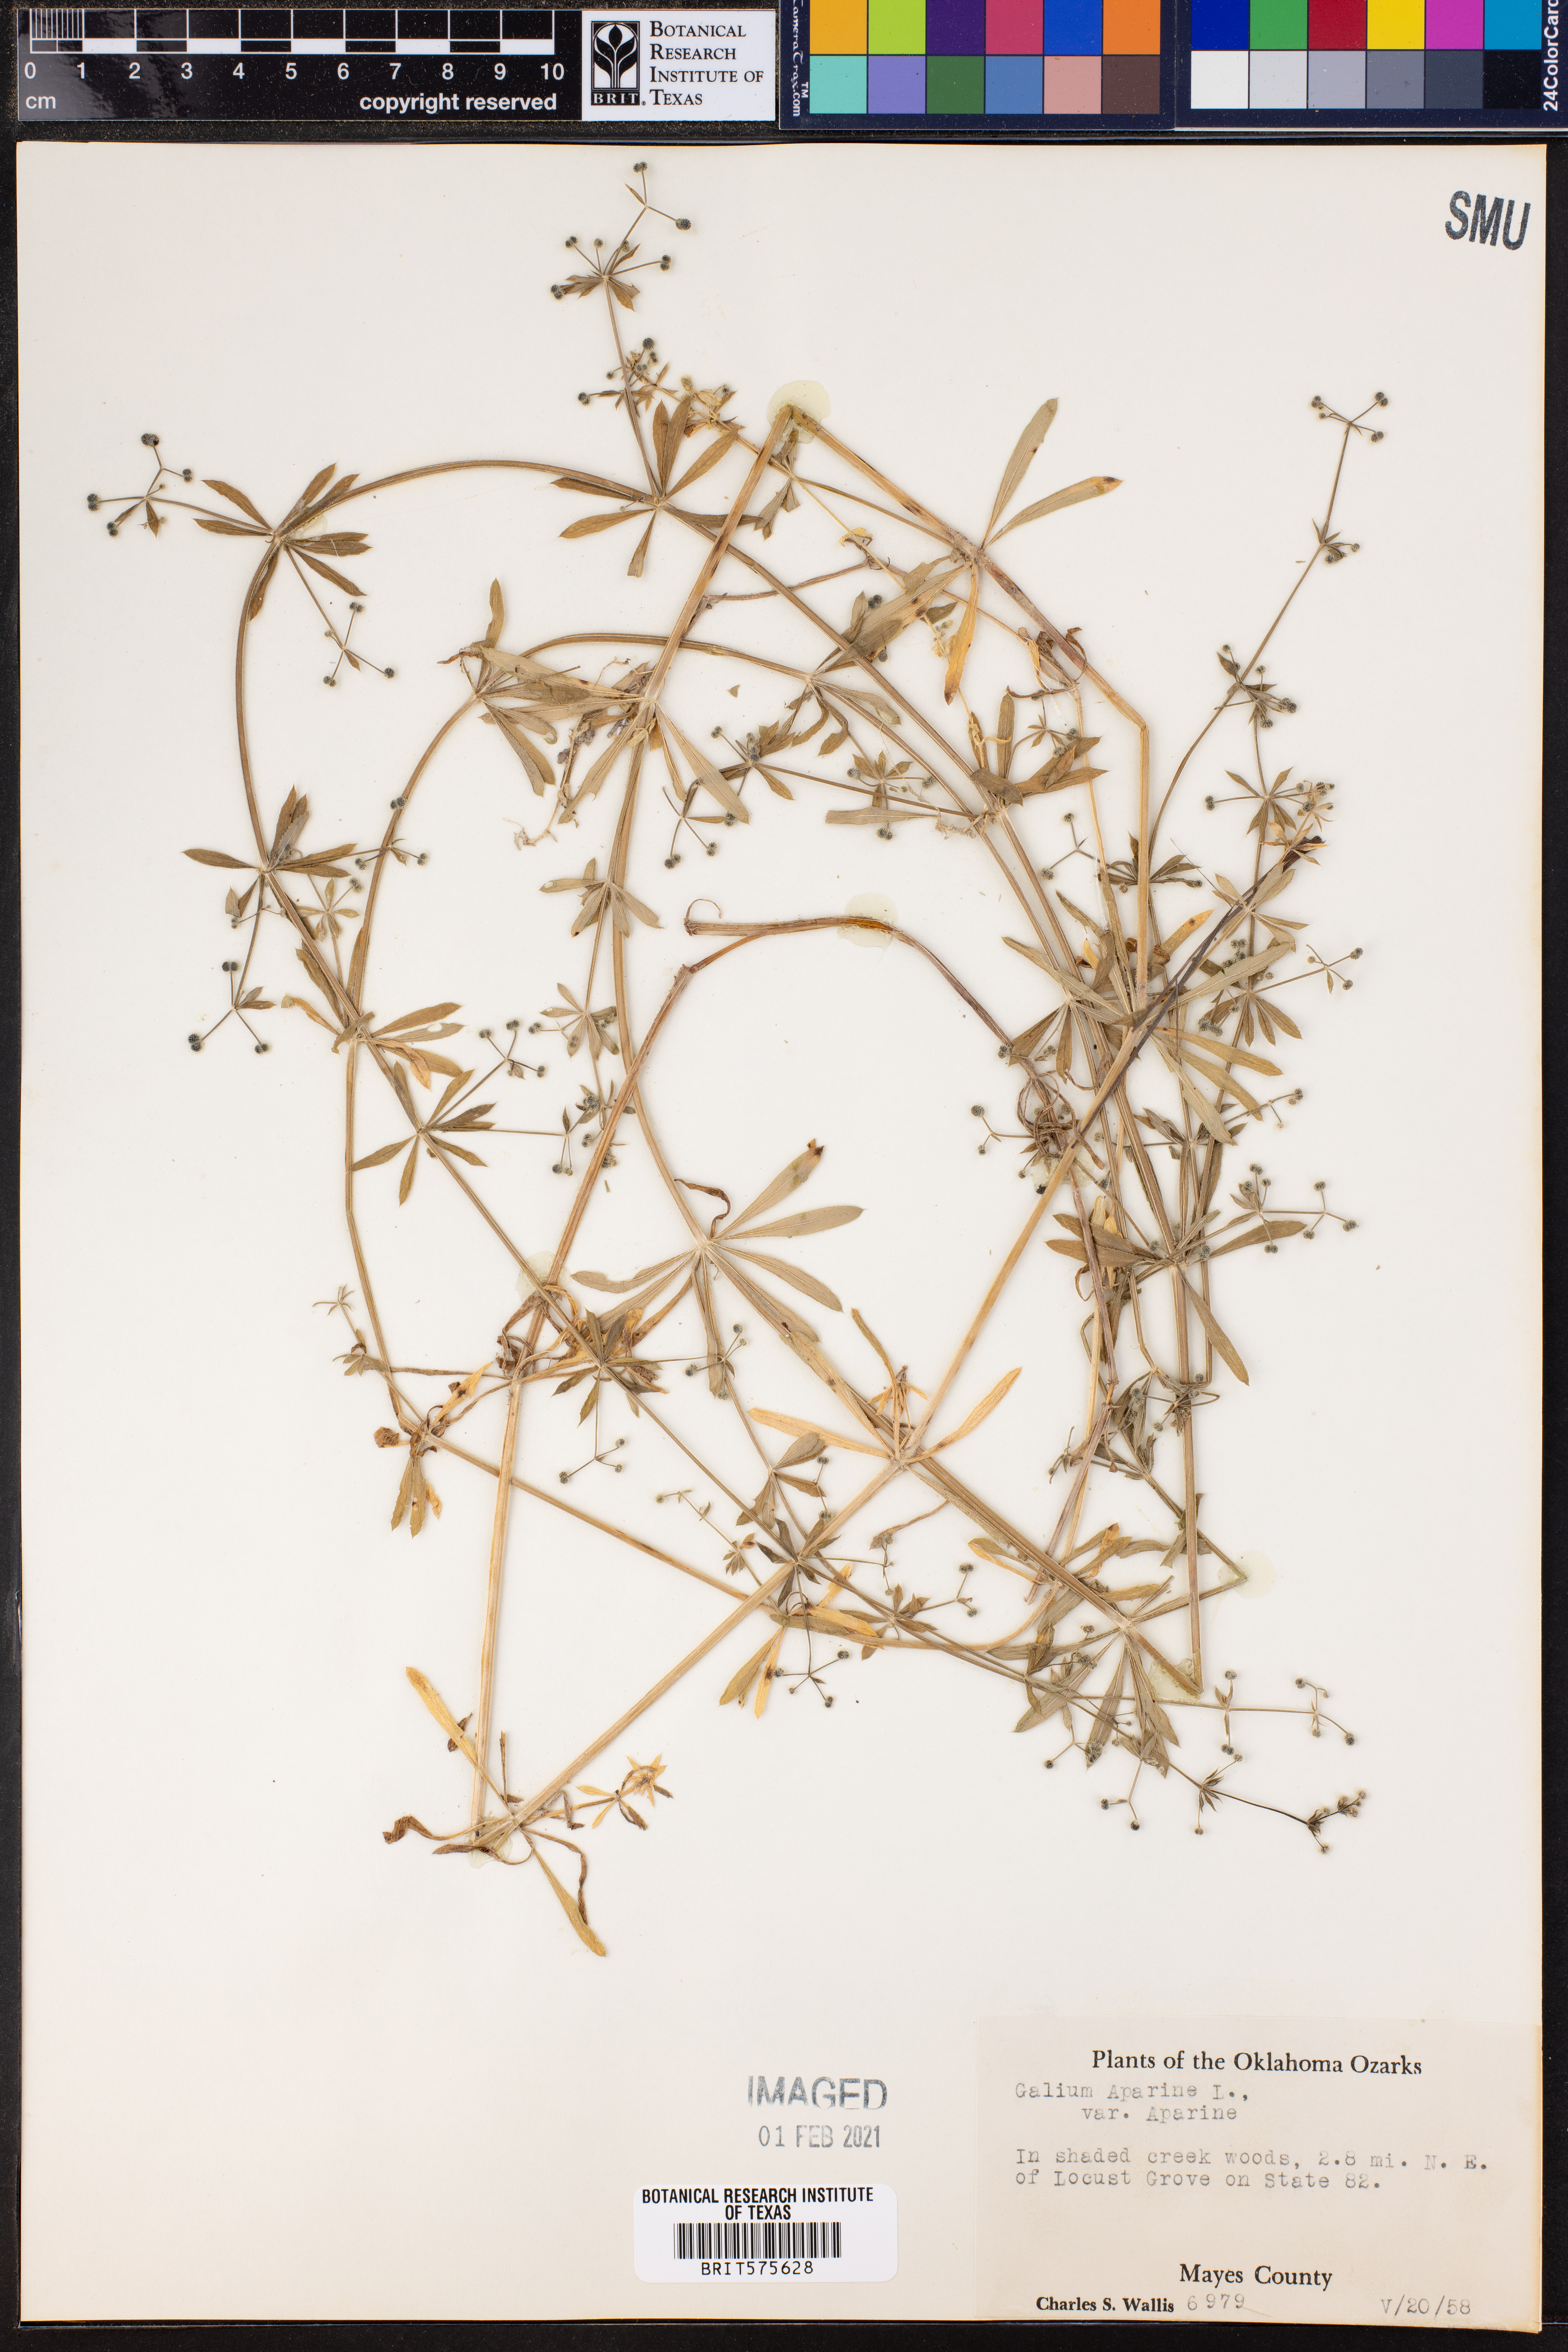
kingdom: Plantae
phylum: Tracheophyta
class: Magnoliopsida
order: Gentianales
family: Rubiaceae
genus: Galium
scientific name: Galium aparine
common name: Cleavers
